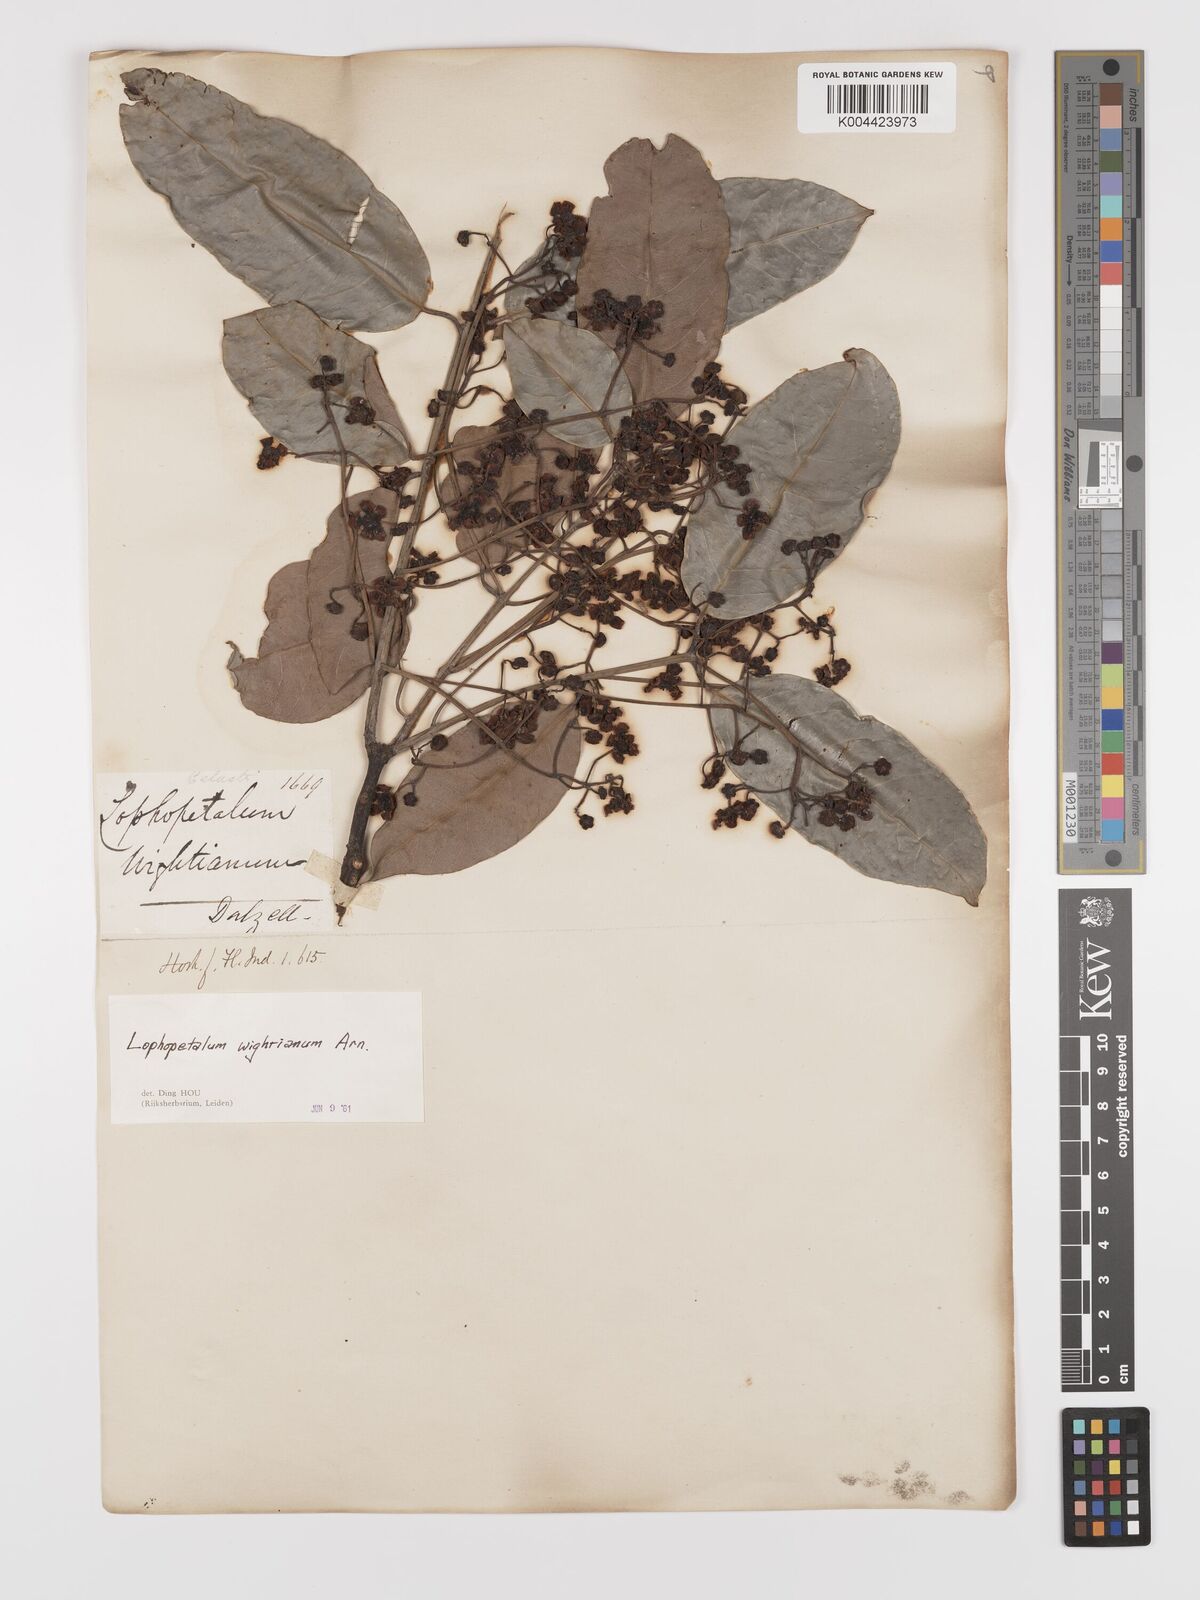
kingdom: Plantae
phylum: Tracheophyta
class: Magnoliopsida
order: Celastrales
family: Celastraceae
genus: Lophopetalum
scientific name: Lophopetalum wightianum
